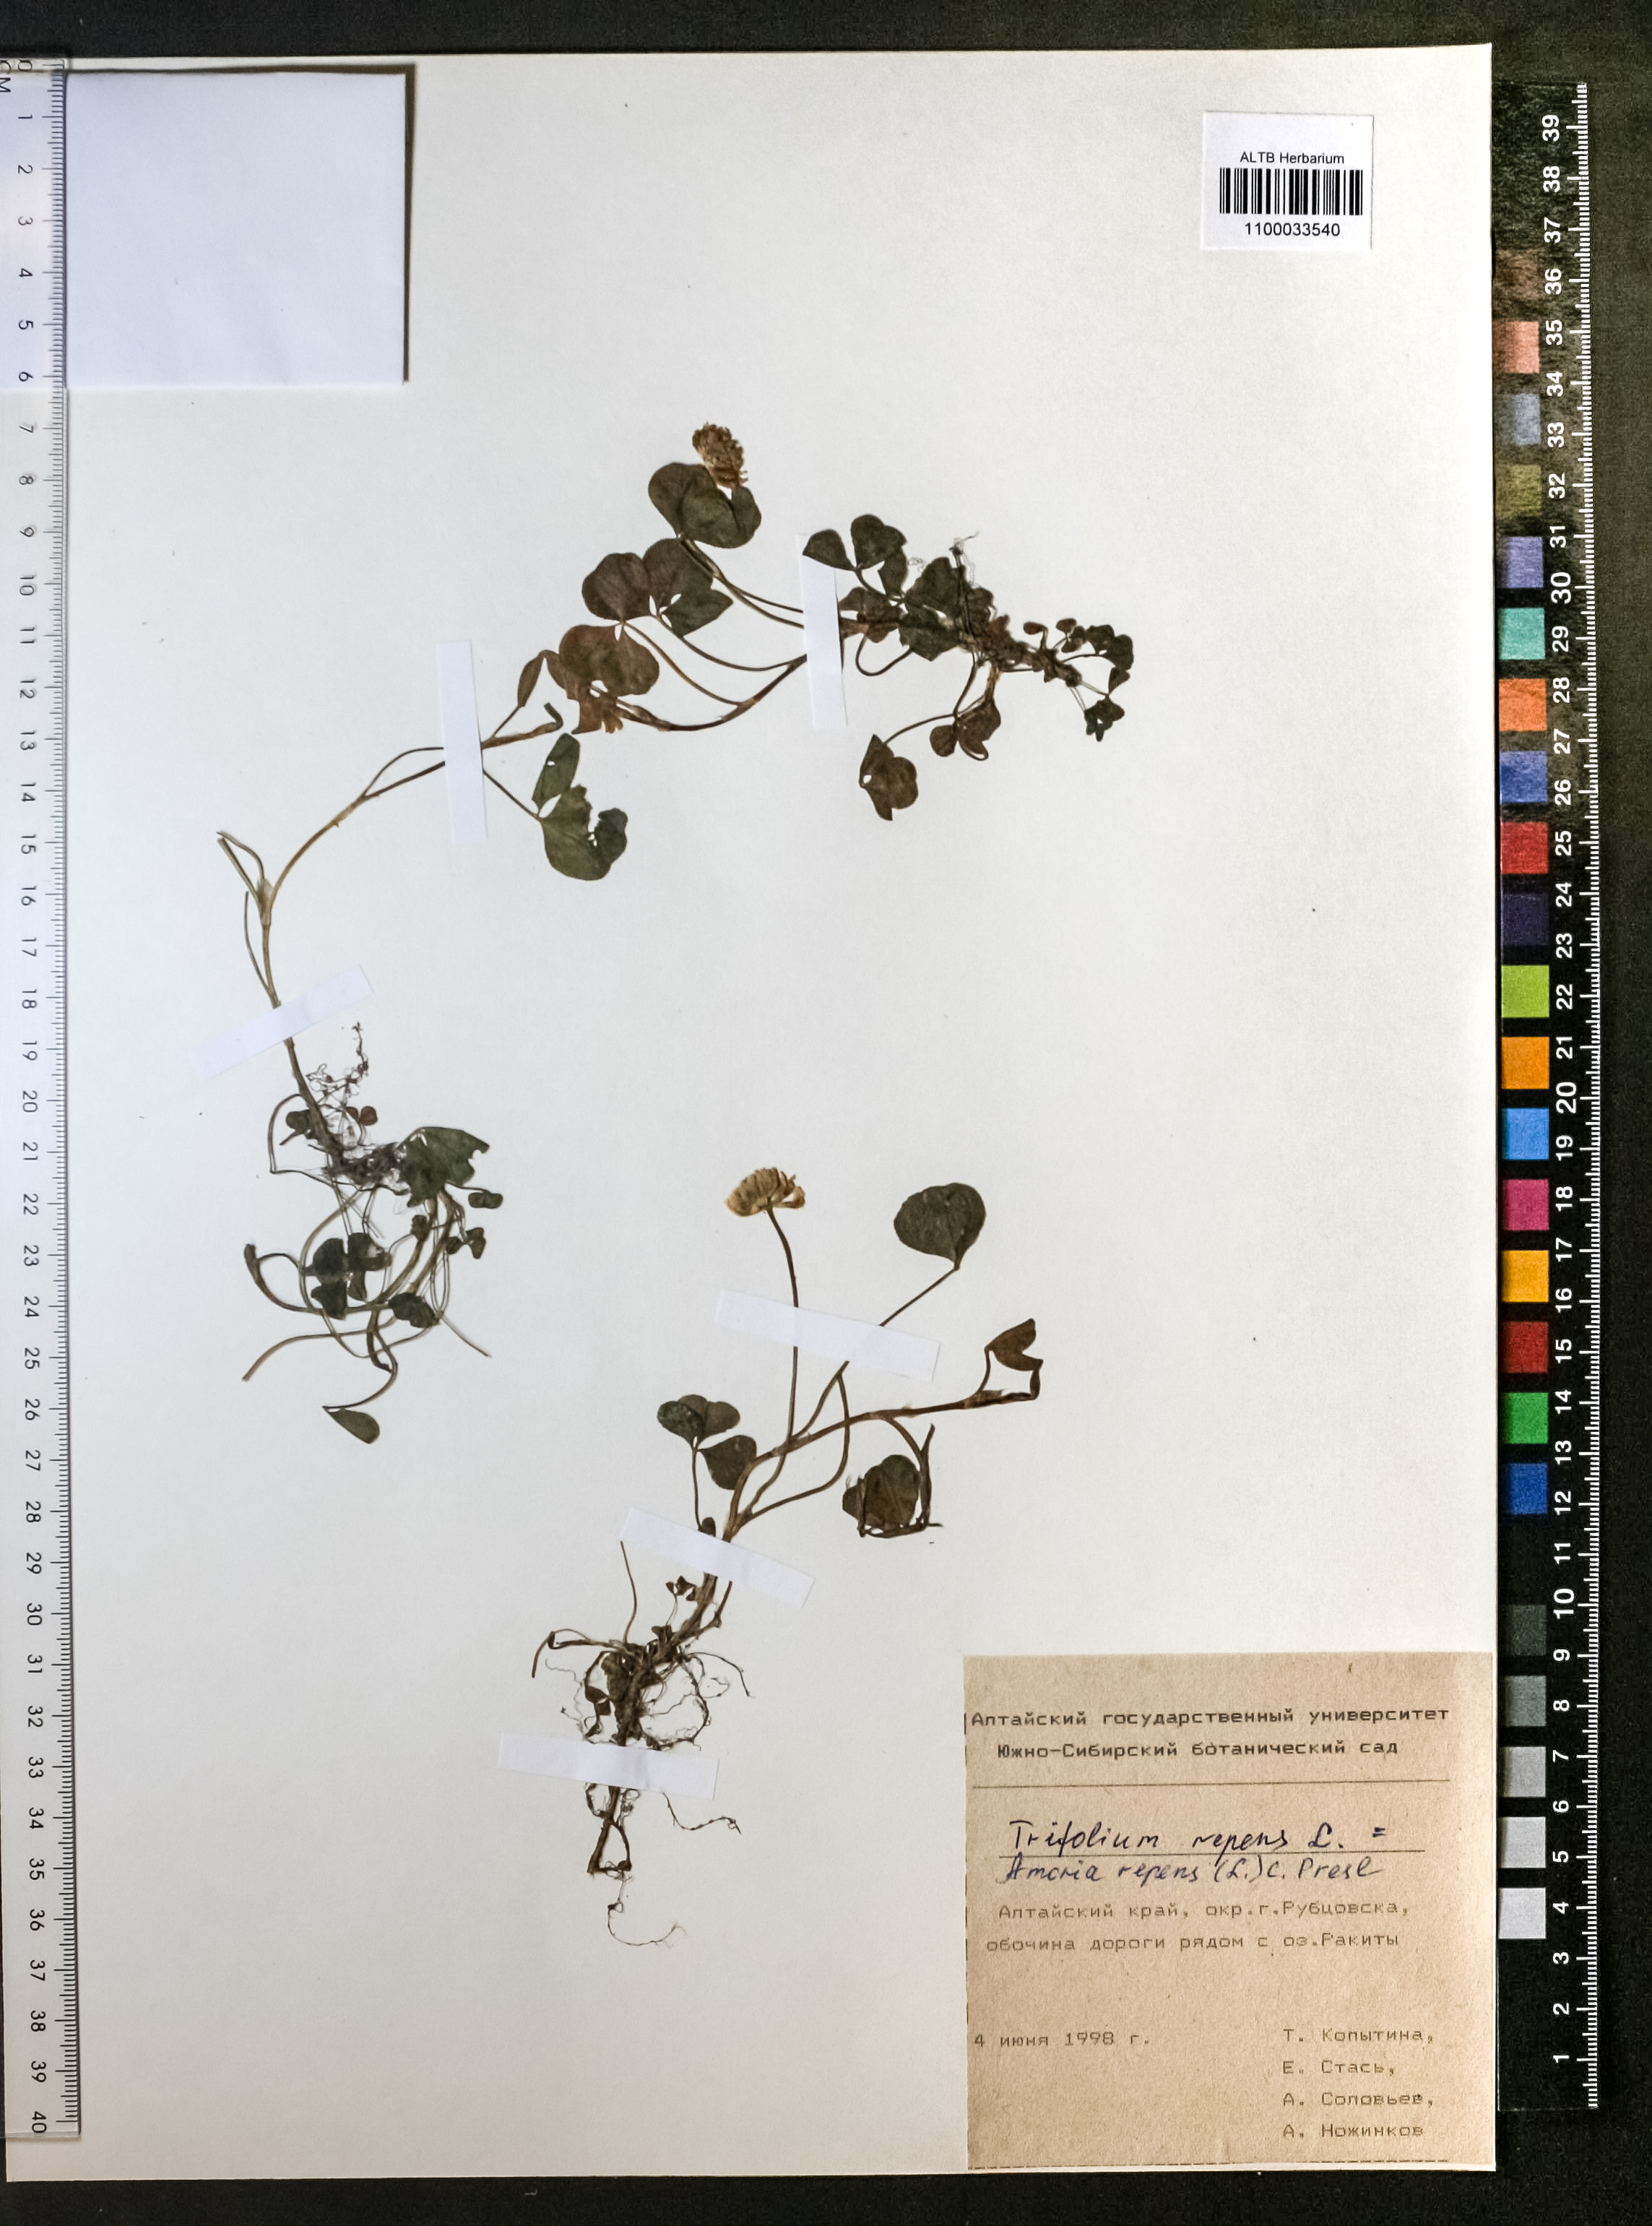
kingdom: Plantae
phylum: Tracheophyta
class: Magnoliopsida
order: Fabales
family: Fabaceae
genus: Trifolium
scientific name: Trifolium repens
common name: White clover
